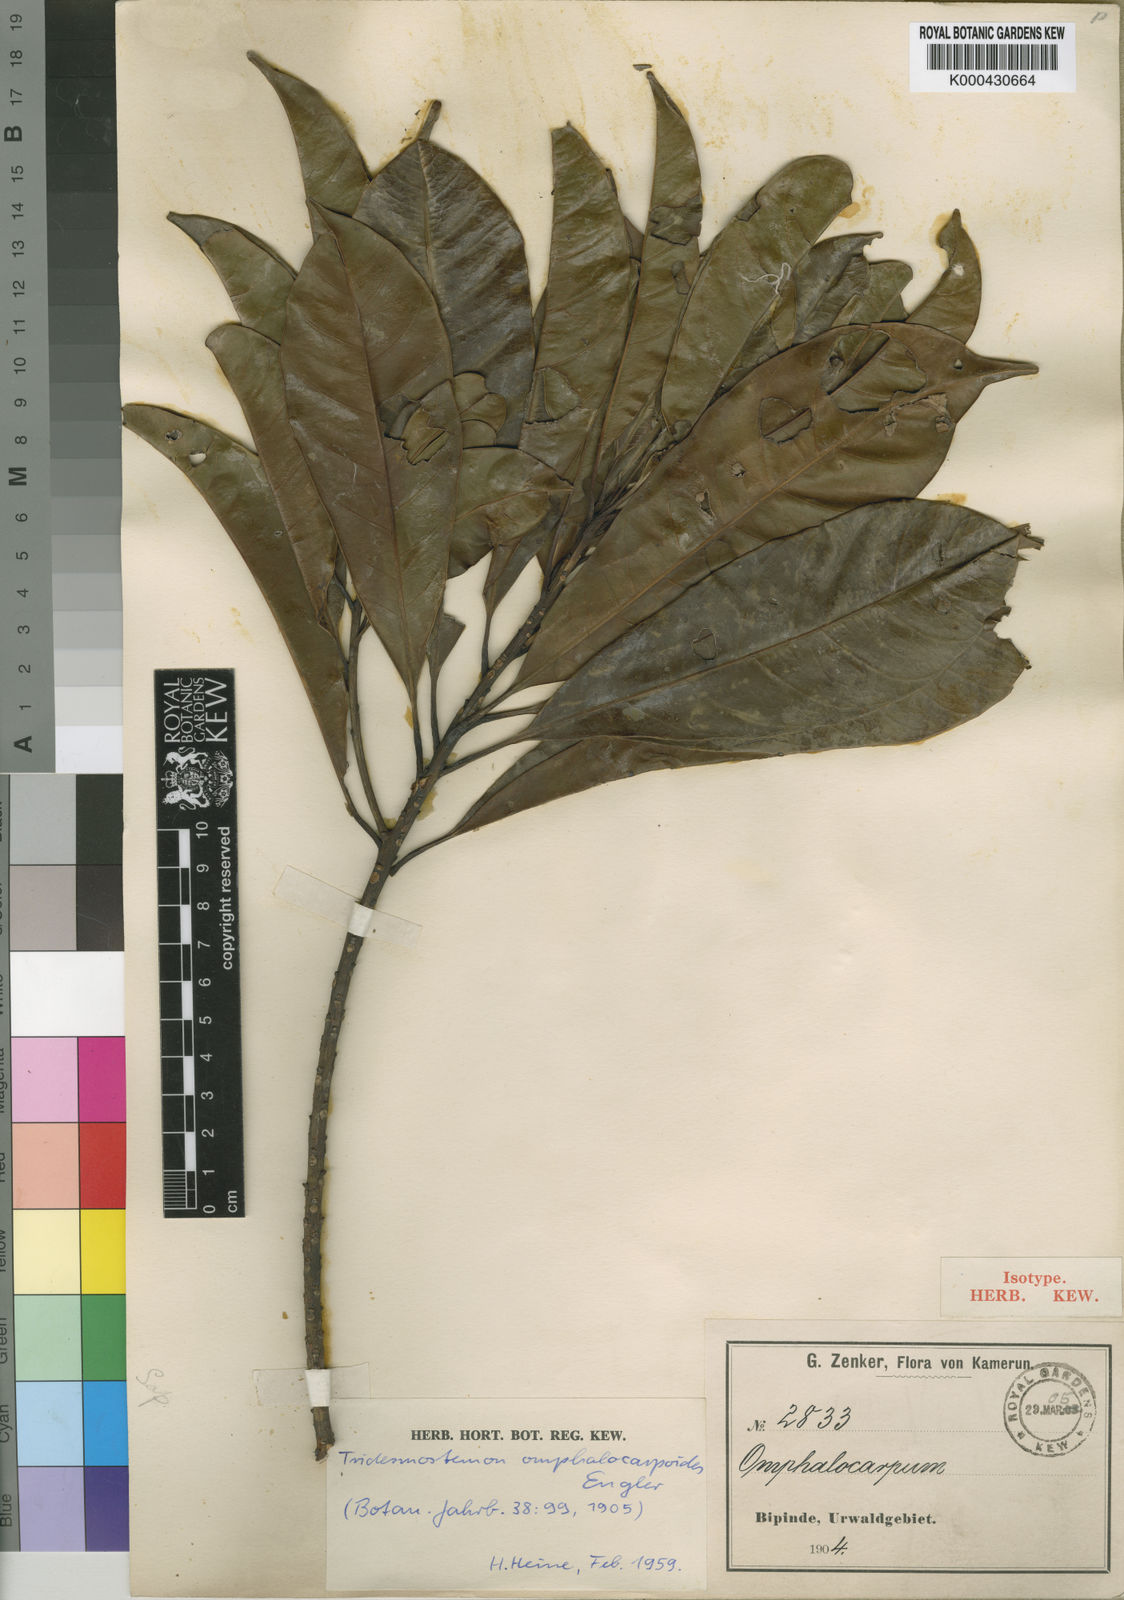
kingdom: Plantae
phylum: Tracheophyta
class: Magnoliopsida
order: Ericales
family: Sapotaceae
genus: Tridesmostemon
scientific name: Tridesmostemon omphalocarpoides
